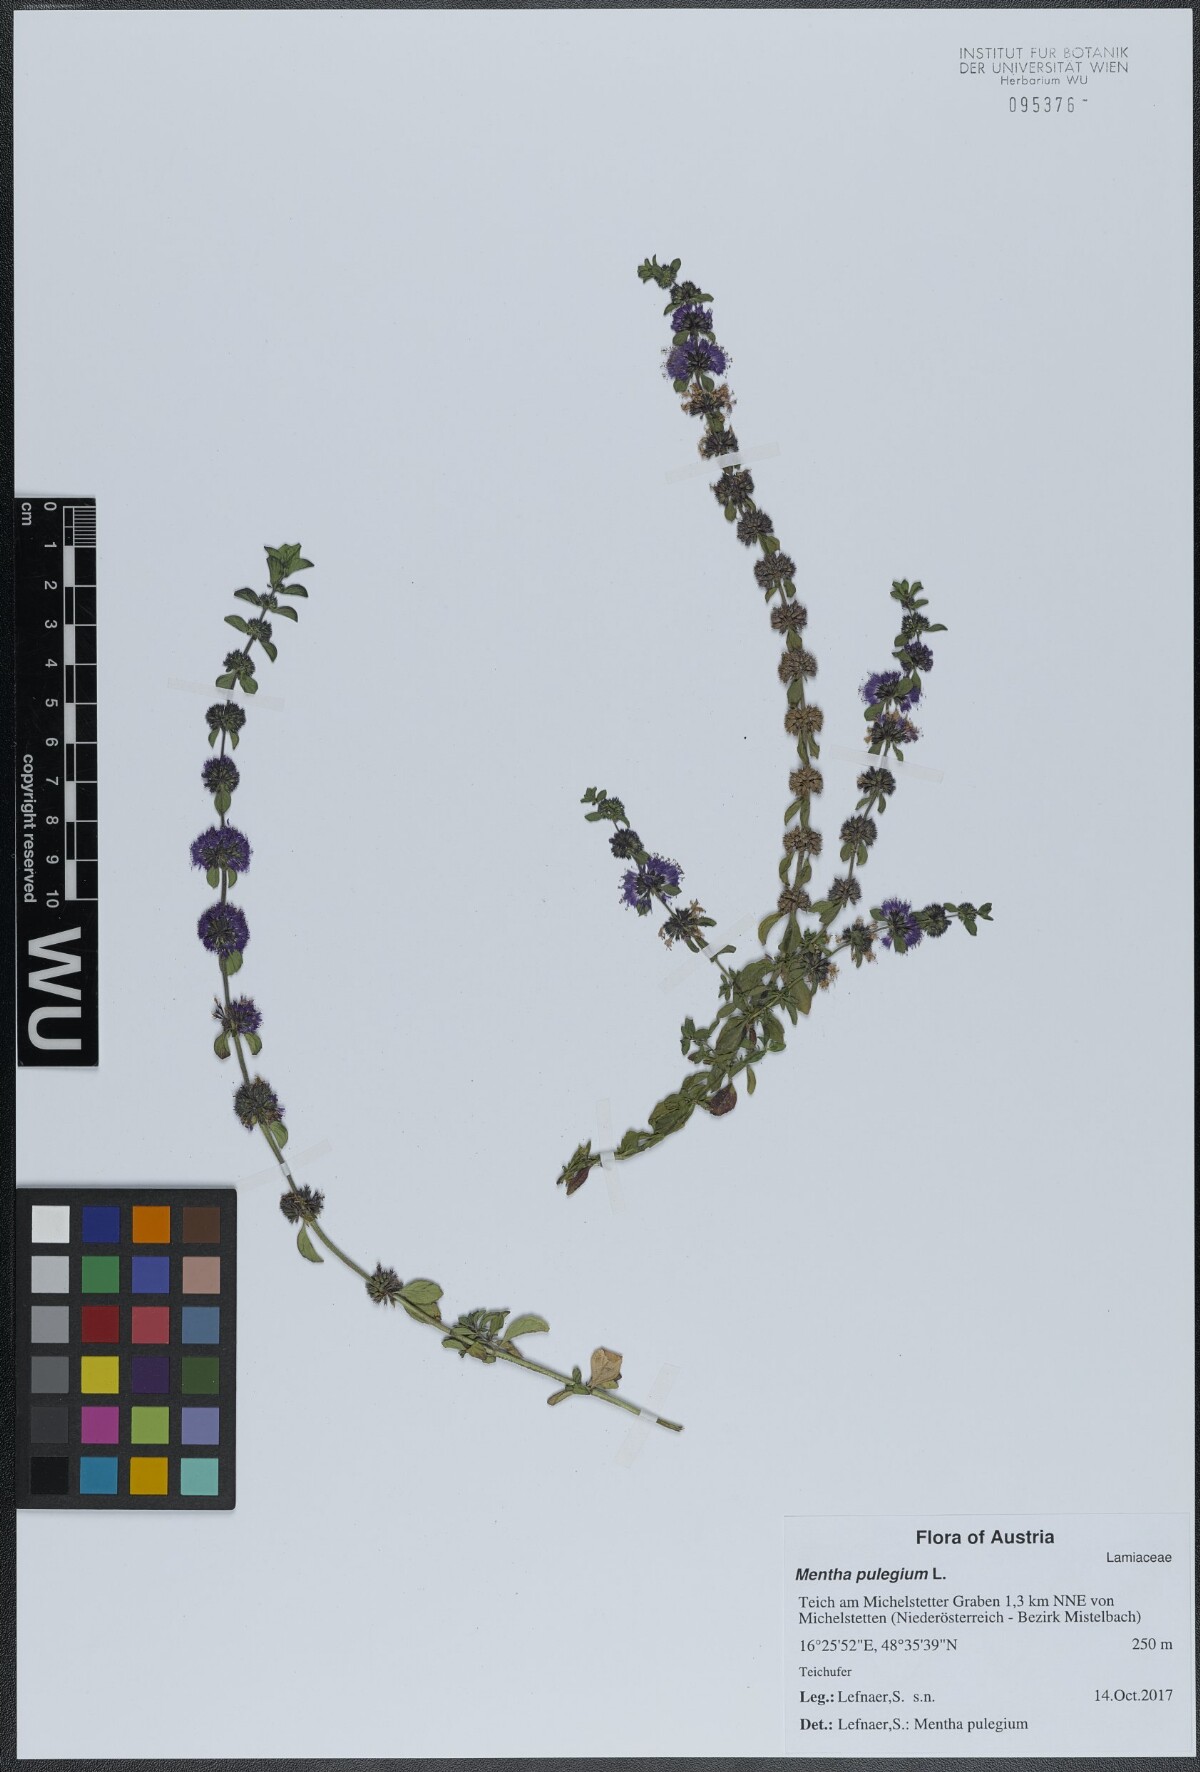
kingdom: Plantae
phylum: Tracheophyta
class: Magnoliopsida
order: Lamiales
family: Lamiaceae
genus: Mentha
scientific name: Mentha pulegium
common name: Pennyroyal
